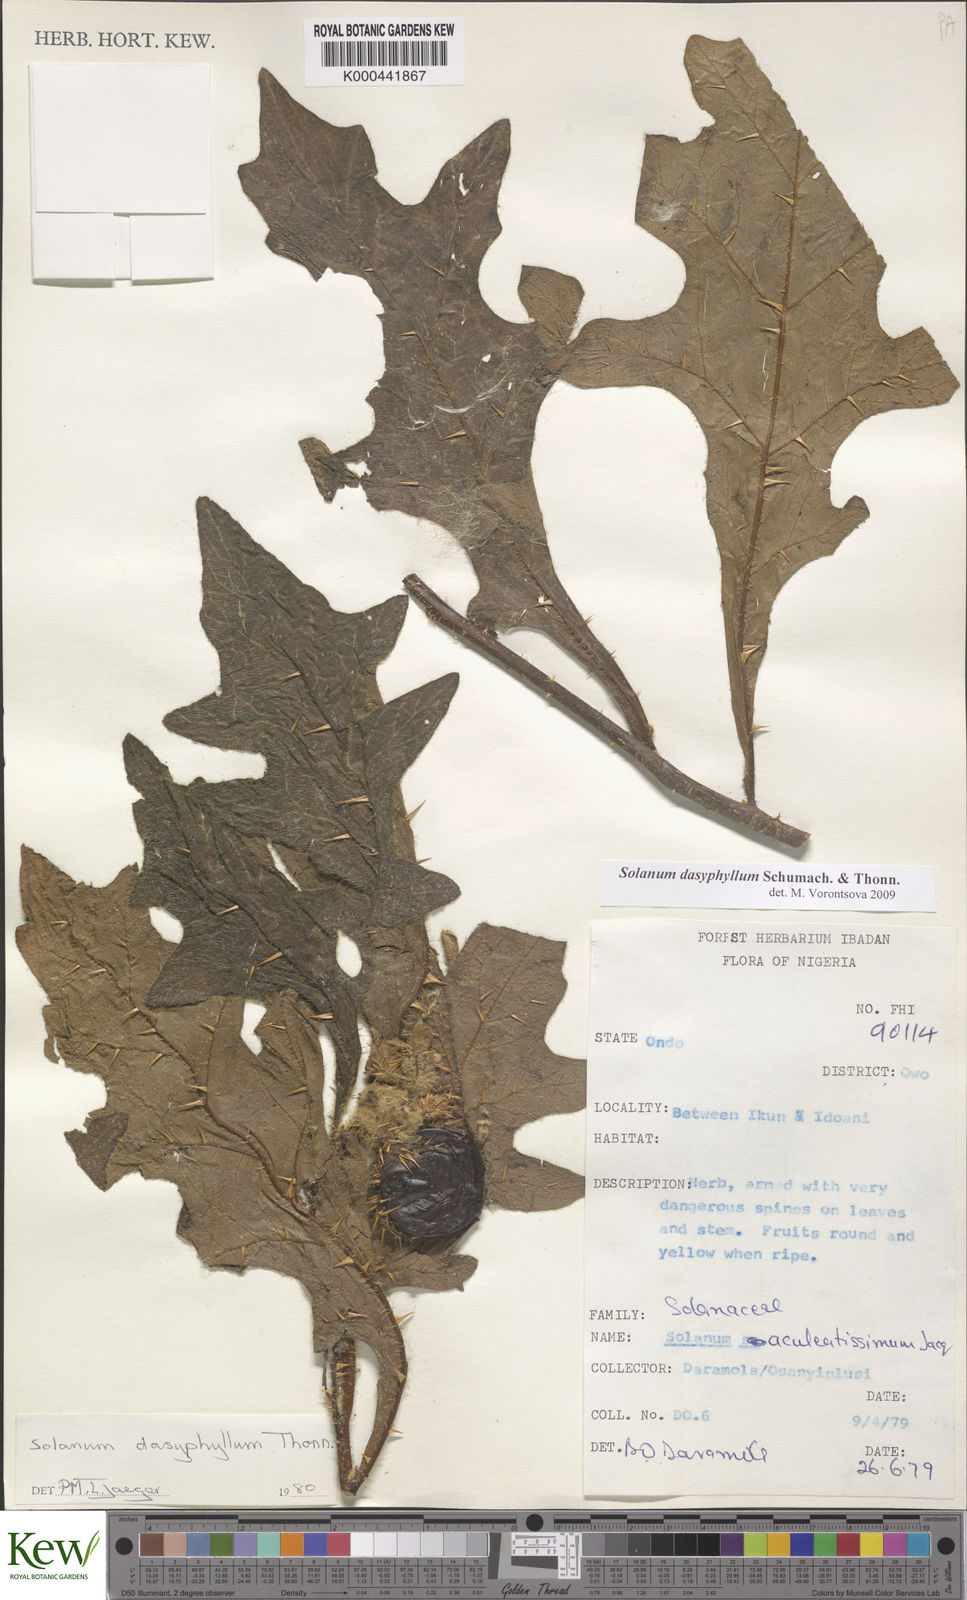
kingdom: Plantae
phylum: Tracheophyta
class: Magnoliopsida
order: Solanales
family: Solanaceae
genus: Solanum
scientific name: Solanum dasyphyllum
